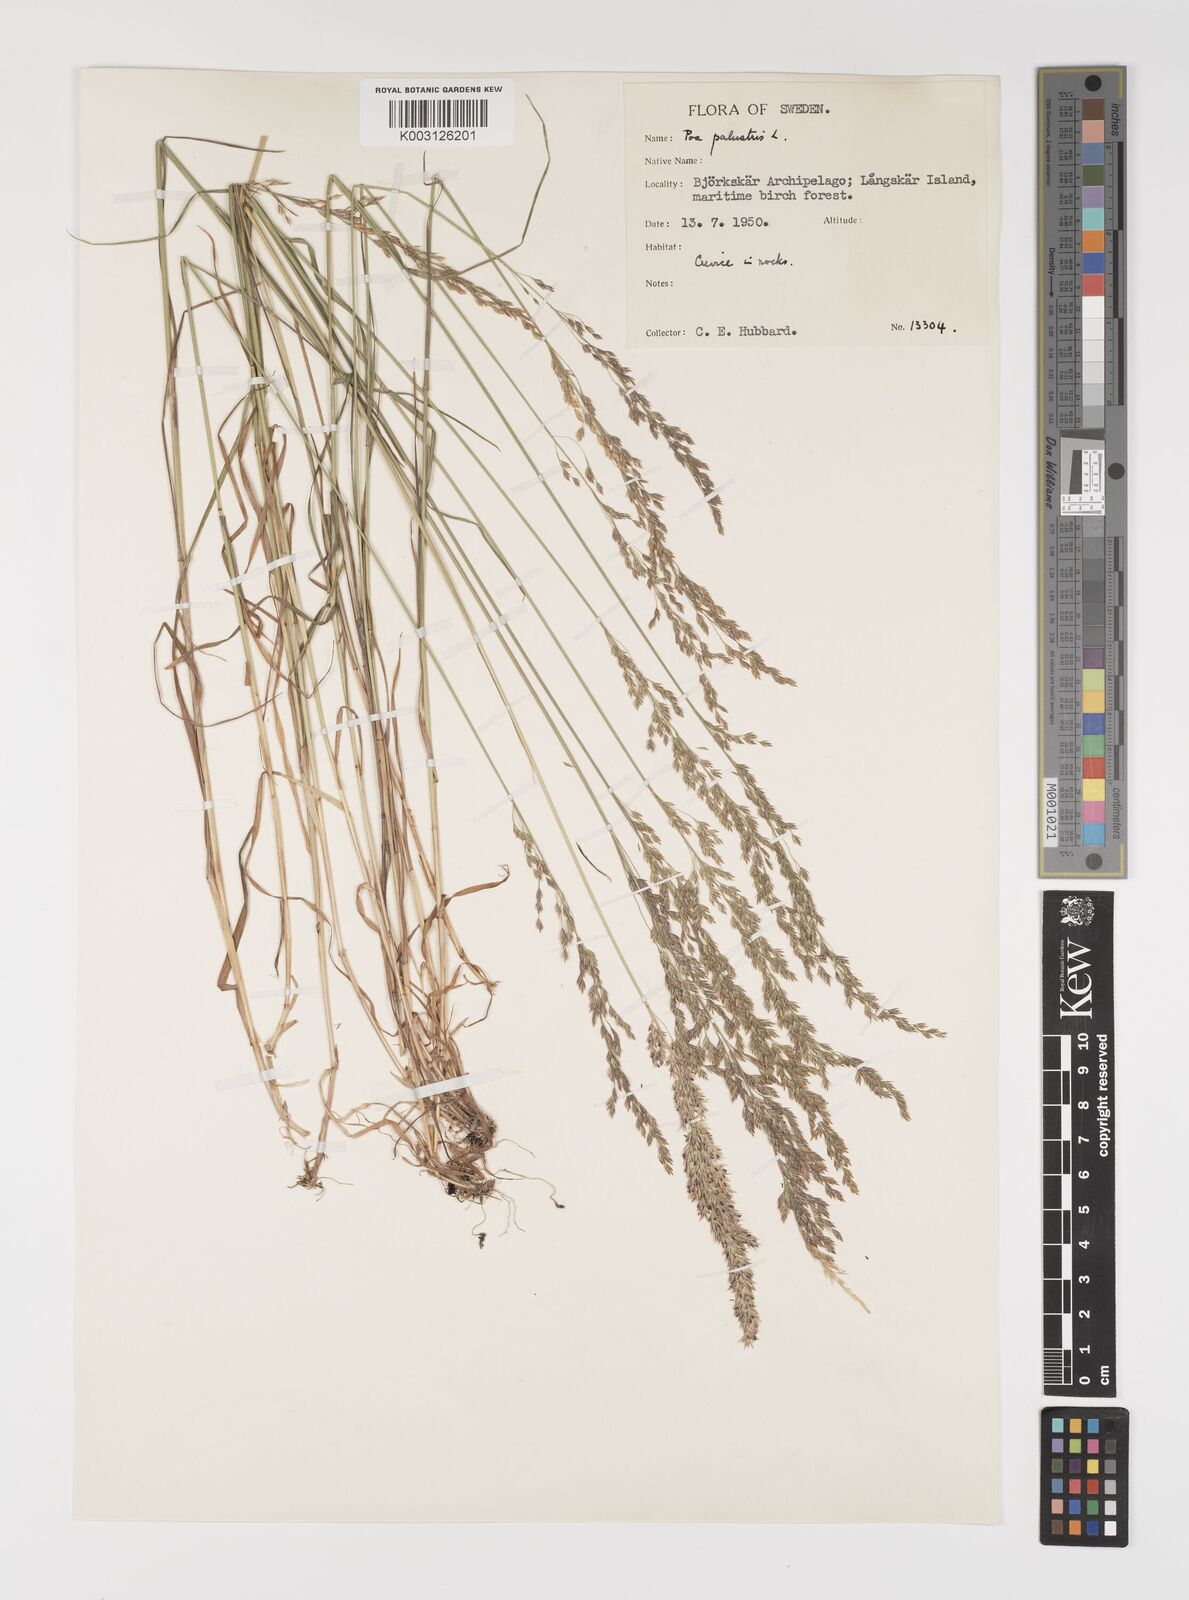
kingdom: Plantae
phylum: Tracheophyta
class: Liliopsida
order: Poales
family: Poaceae
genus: Poa
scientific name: Poa palustris
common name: Swamp meadow-grass
